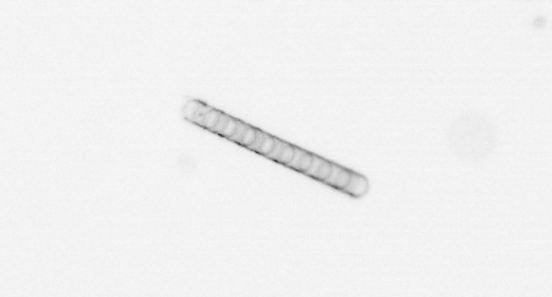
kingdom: Chromista
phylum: Ochrophyta
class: Bacillariophyceae
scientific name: Bacillariophyceae
